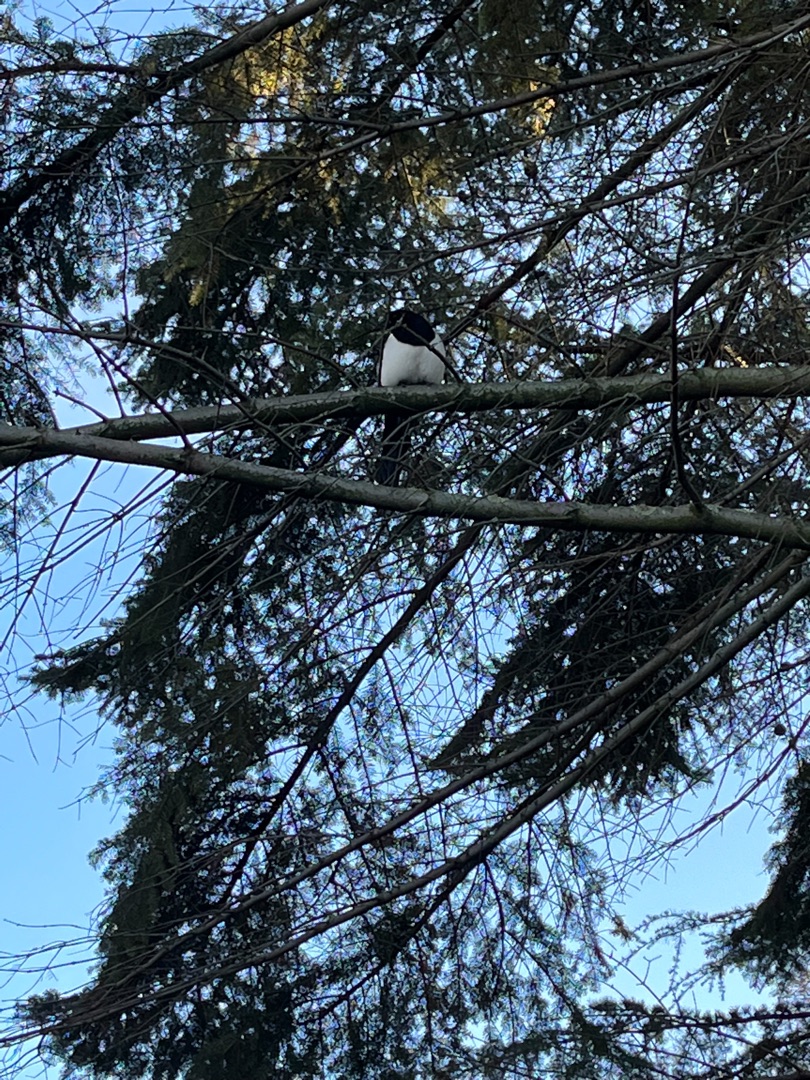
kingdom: Animalia
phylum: Chordata
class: Aves
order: Passeriformes
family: Corvidae
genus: Pica
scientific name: Pica pica
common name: Husskade
